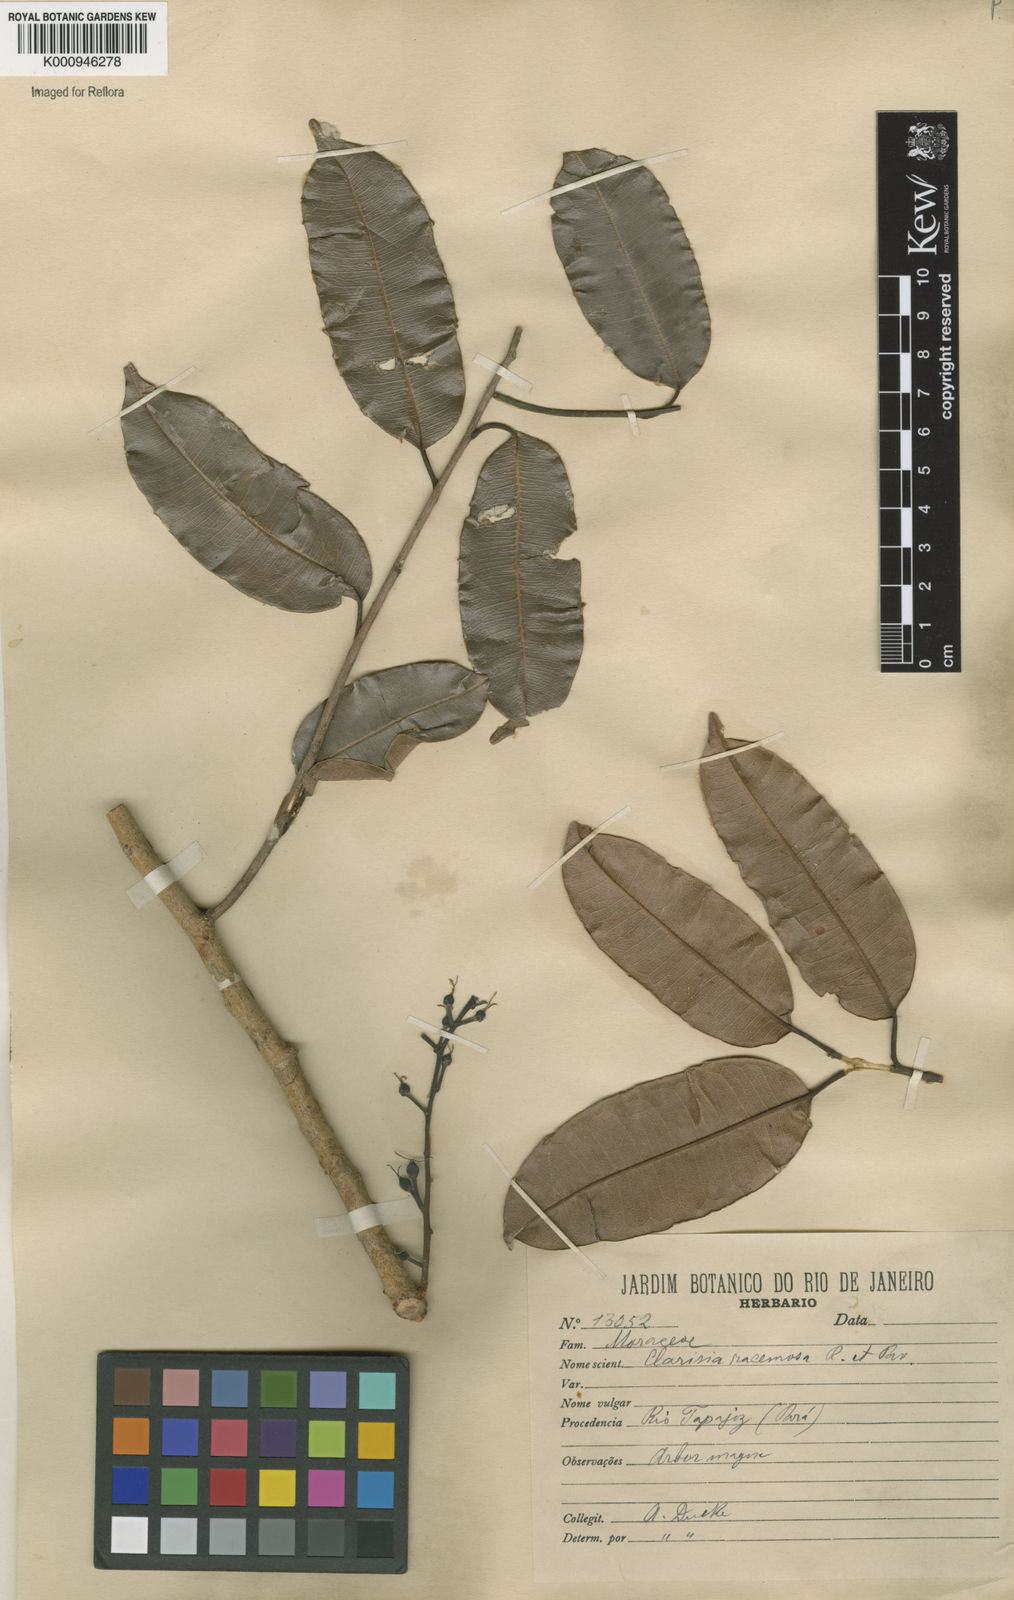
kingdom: Plantae
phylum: Tracheophyta
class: Magnoliopsida
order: Rosales
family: Moraceae
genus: Clarisia
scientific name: Clarisia racemosa
